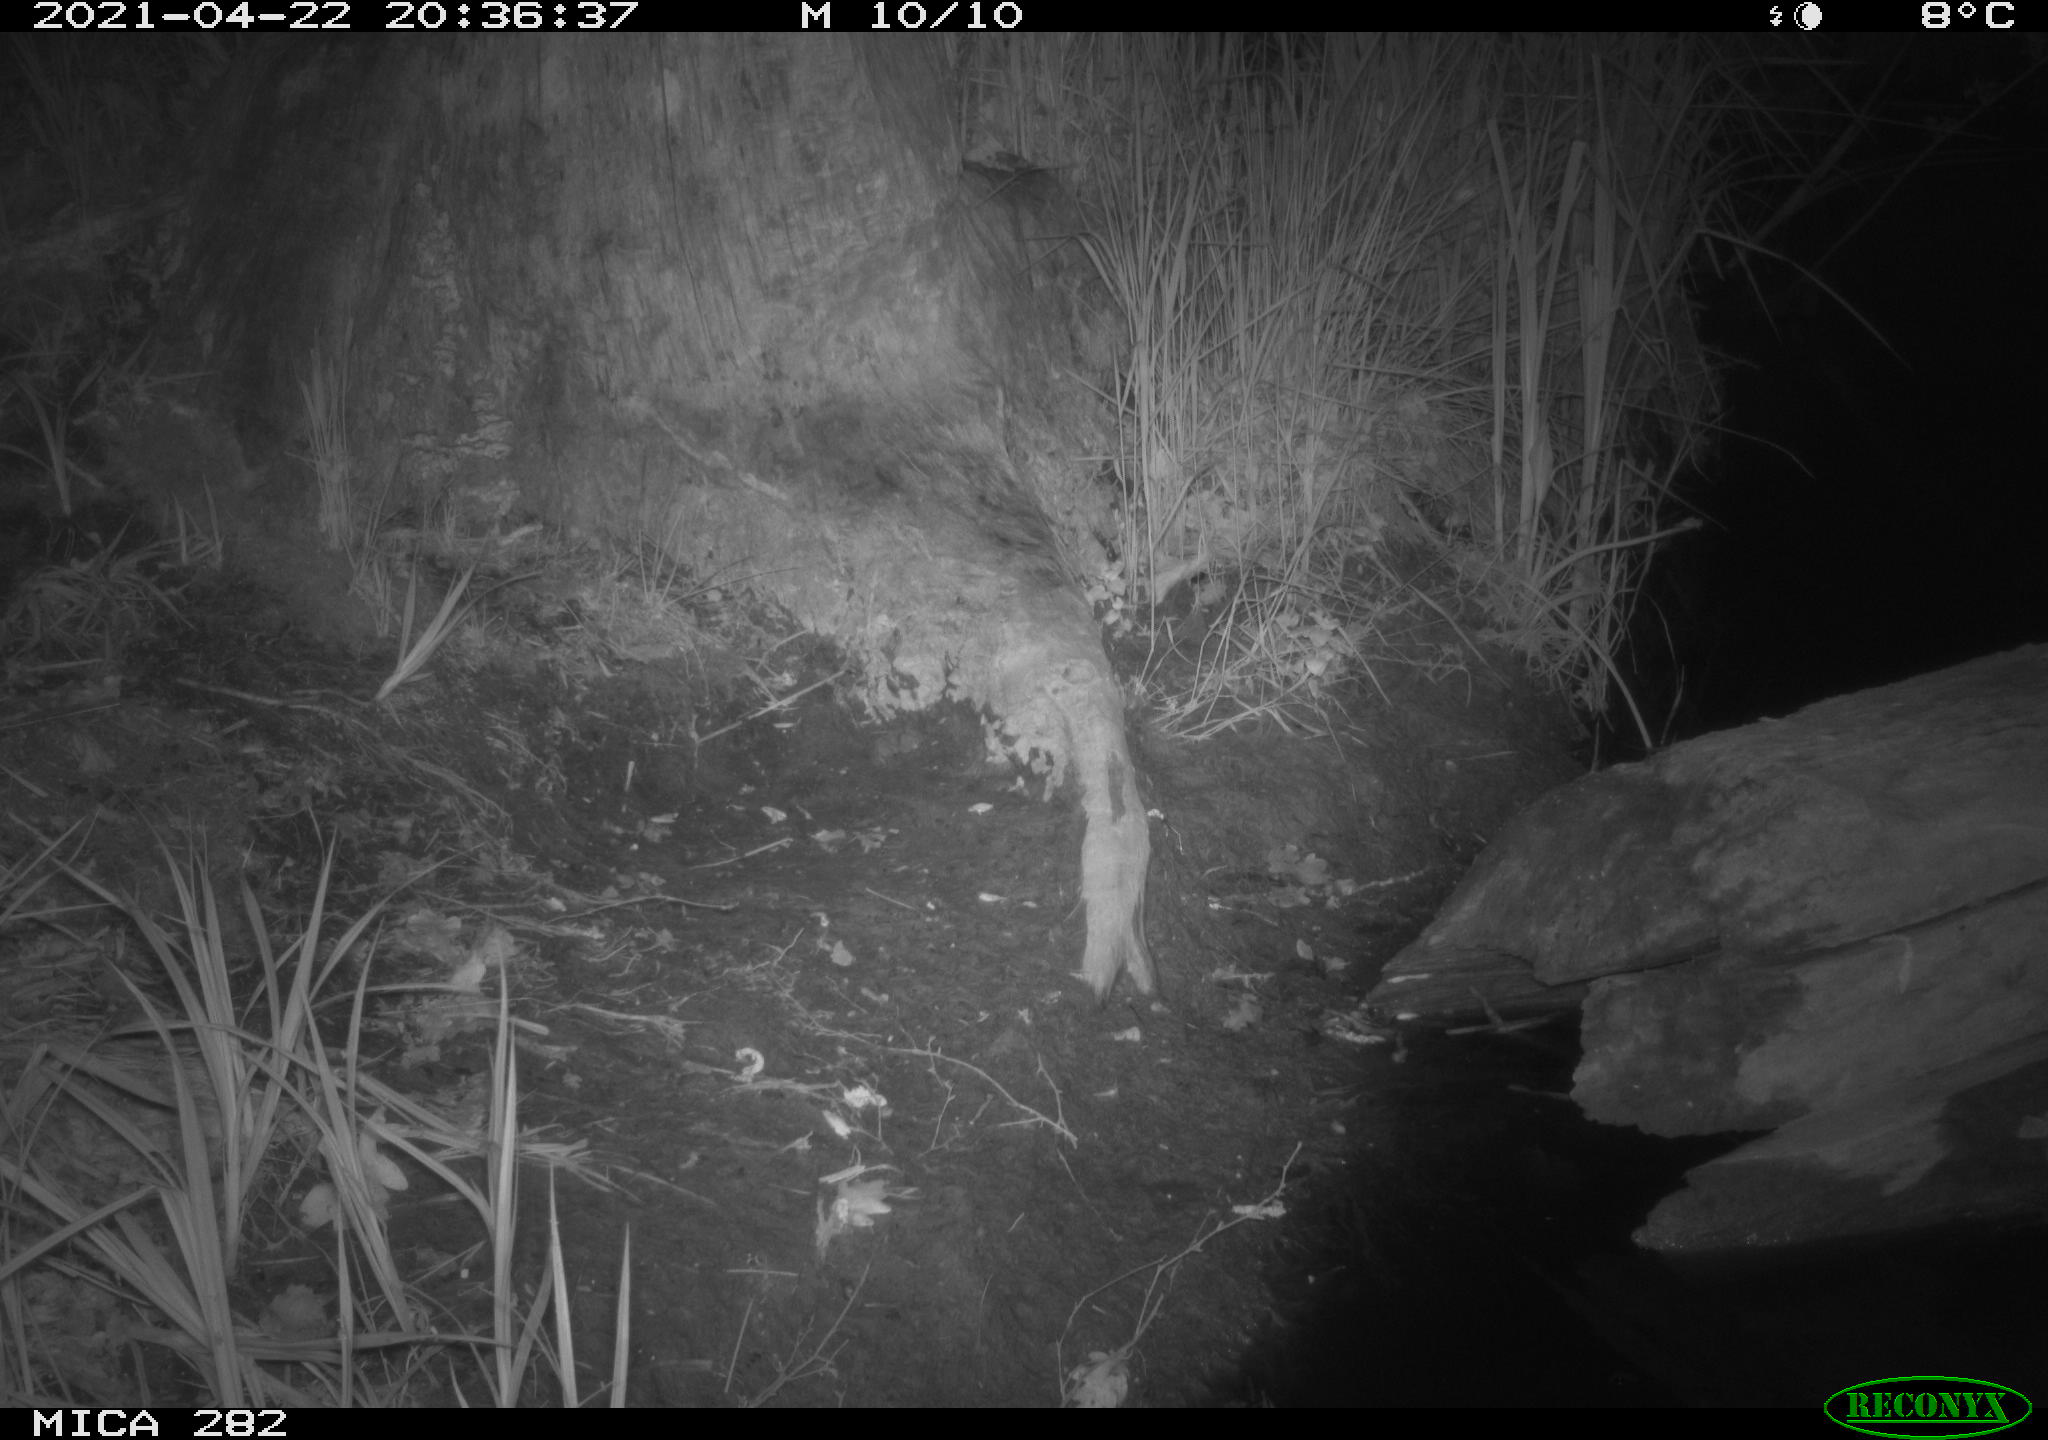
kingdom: Animalia
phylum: Chordata
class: Mammalia
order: Carnivora
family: Canidae
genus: Vulpes
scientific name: Vulpes vulpes
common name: Red fox
